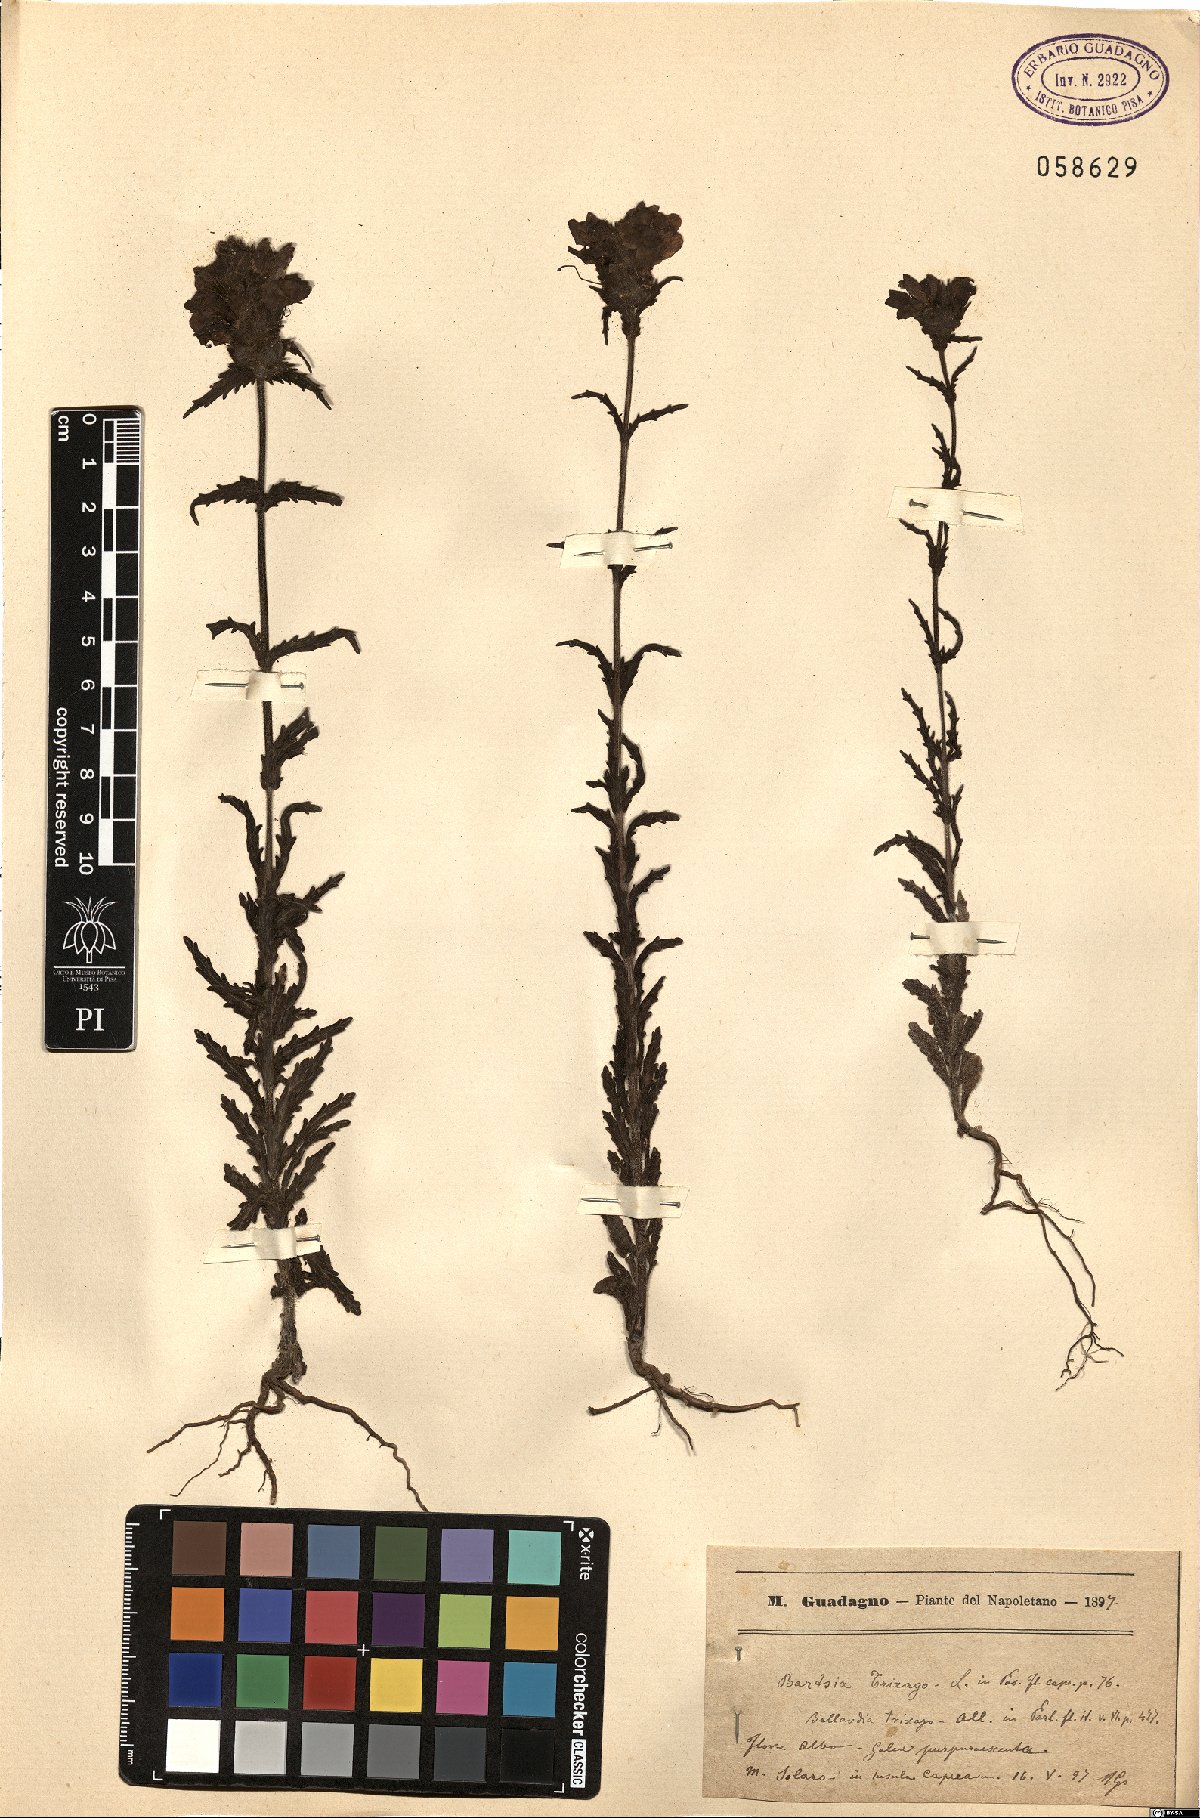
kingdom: Plantae
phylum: Tracheophyta
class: Magnoliopsida
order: Lamiales
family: Orobanchaceae
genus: Bellardia
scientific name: Bellardia trixago
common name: Mediterranean lineseed
